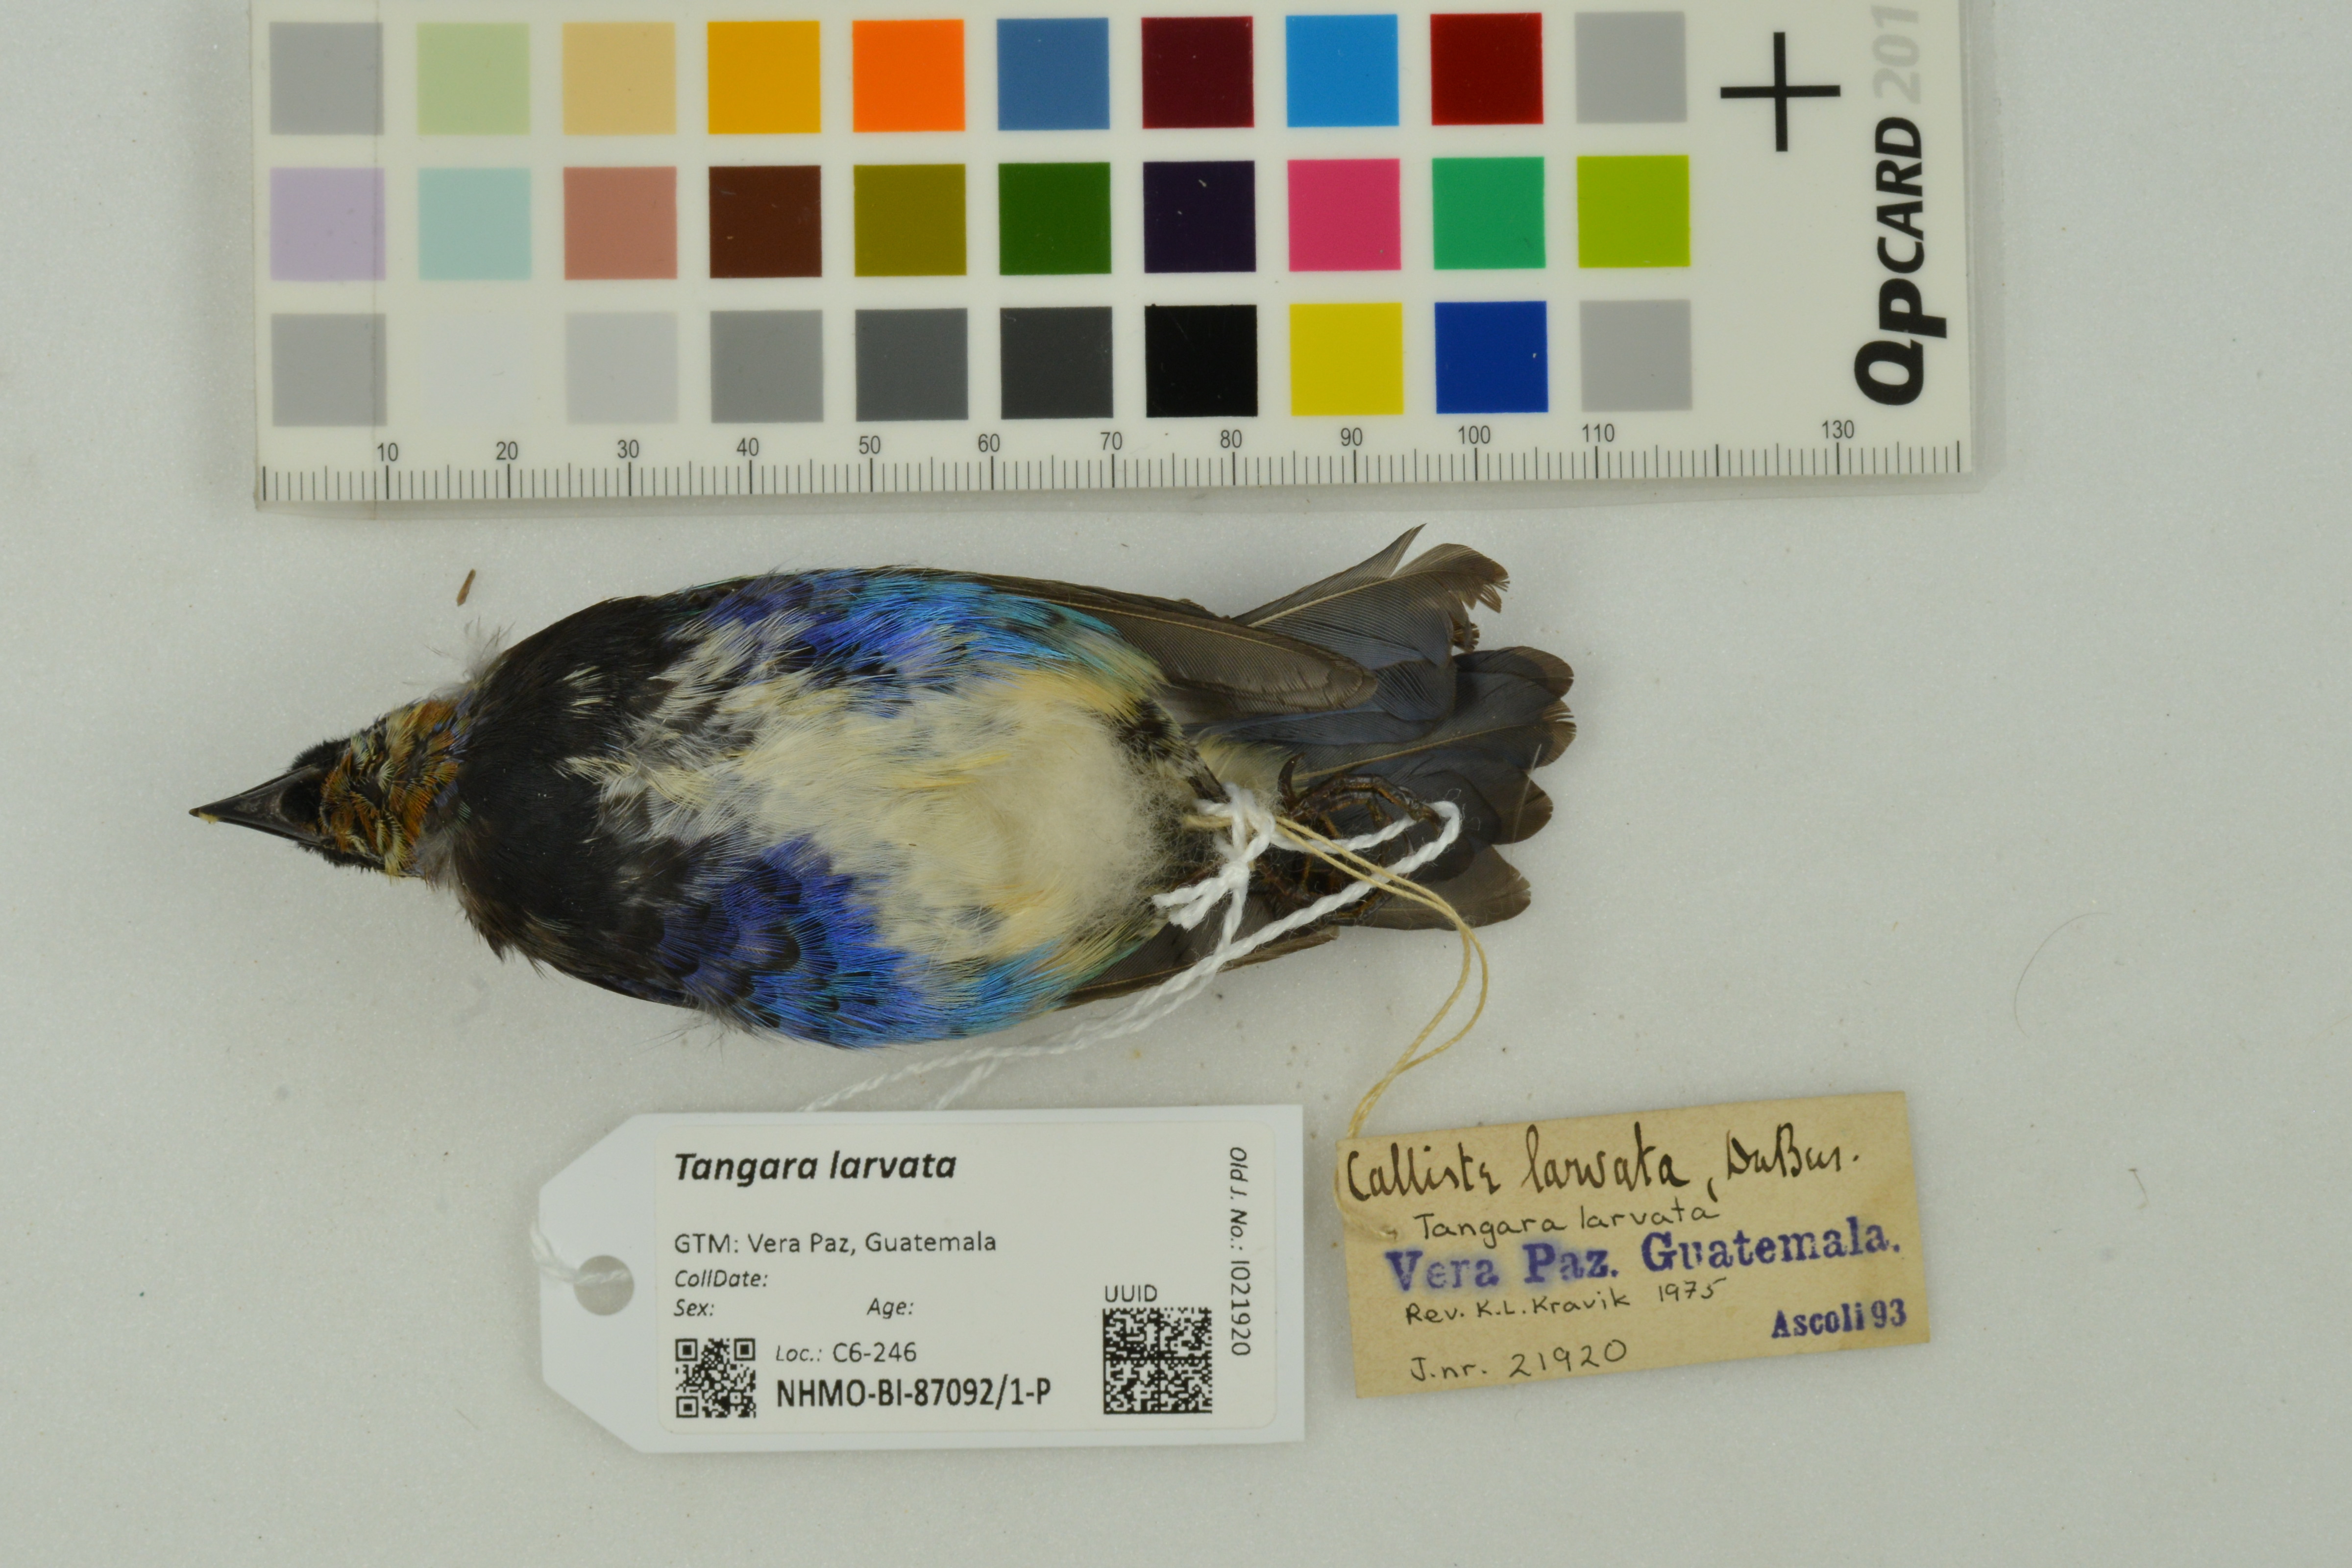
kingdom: Animalia
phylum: Chordata
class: Aves
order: Passeriformes
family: Thraupidae
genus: Stilpnia
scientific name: Stilpnia larvata
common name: Golden-hooded tanager
